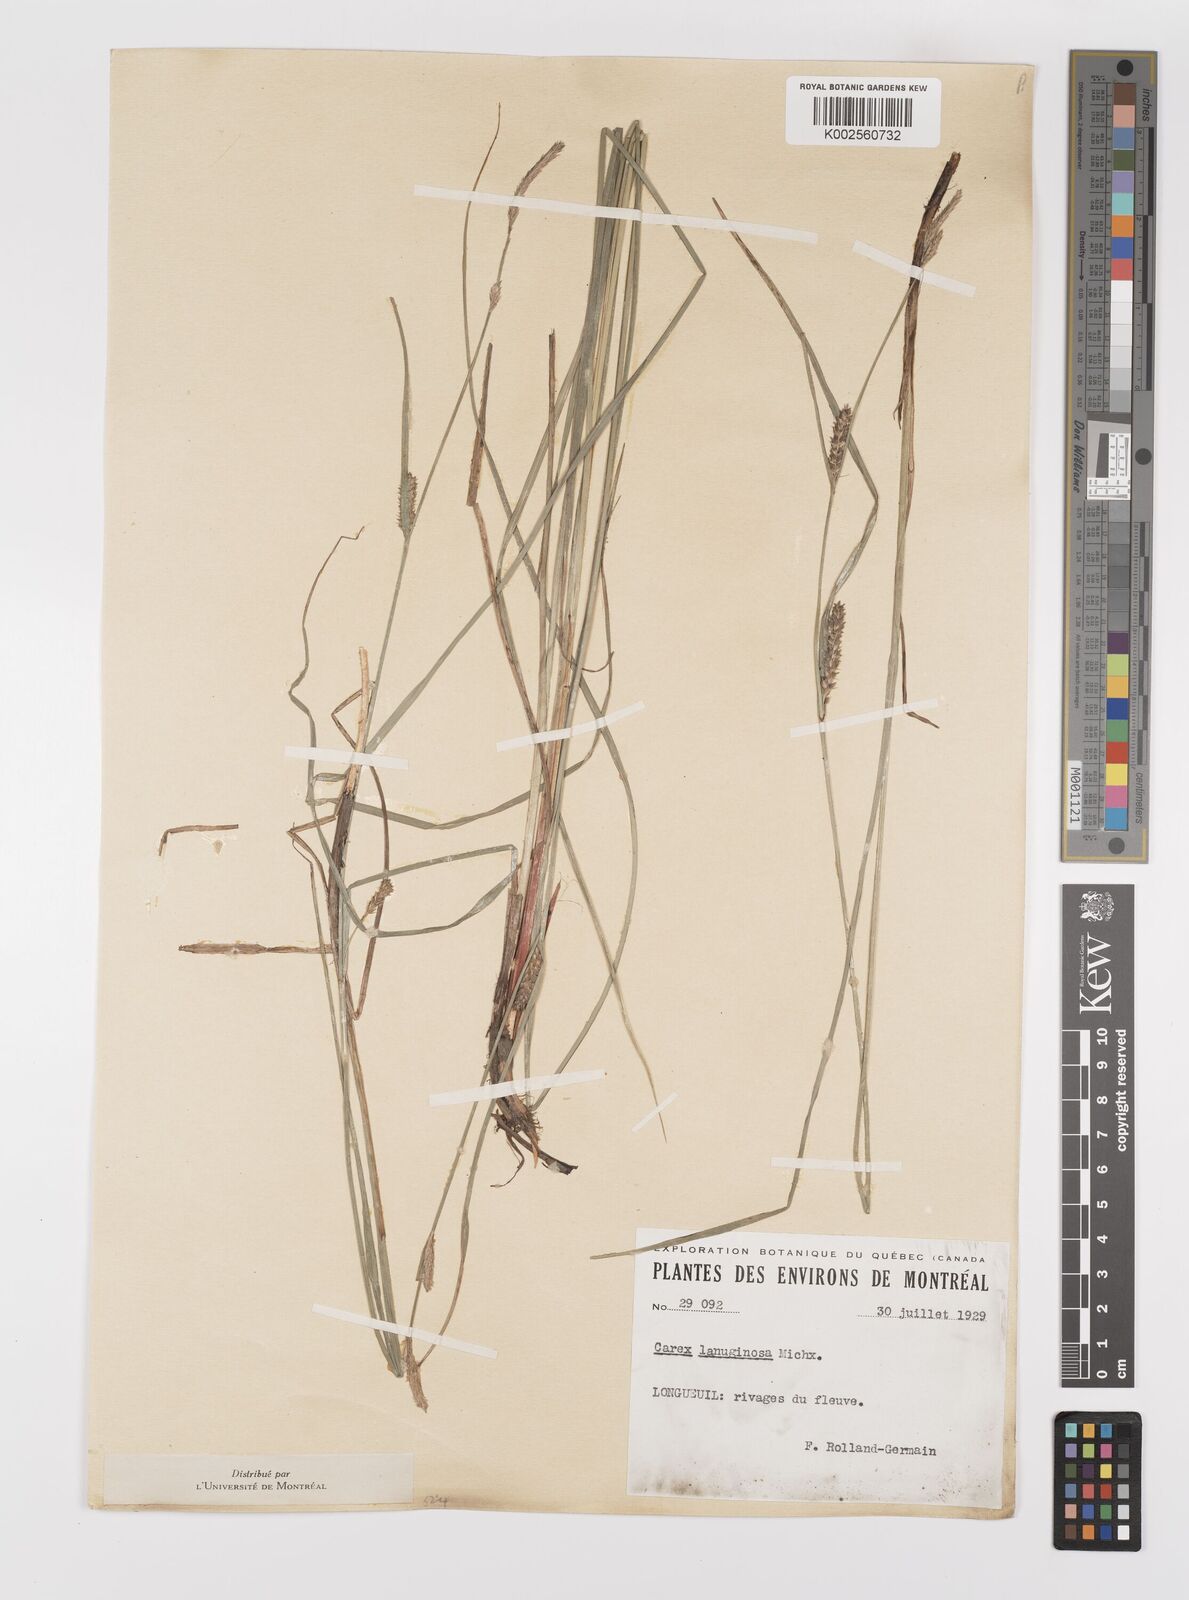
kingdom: Plantae
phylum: Tracheophyta
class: Liliopsida
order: Poales
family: Cyperaceae
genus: Carex
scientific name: Carex lasiocarpa
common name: Slender sedge
